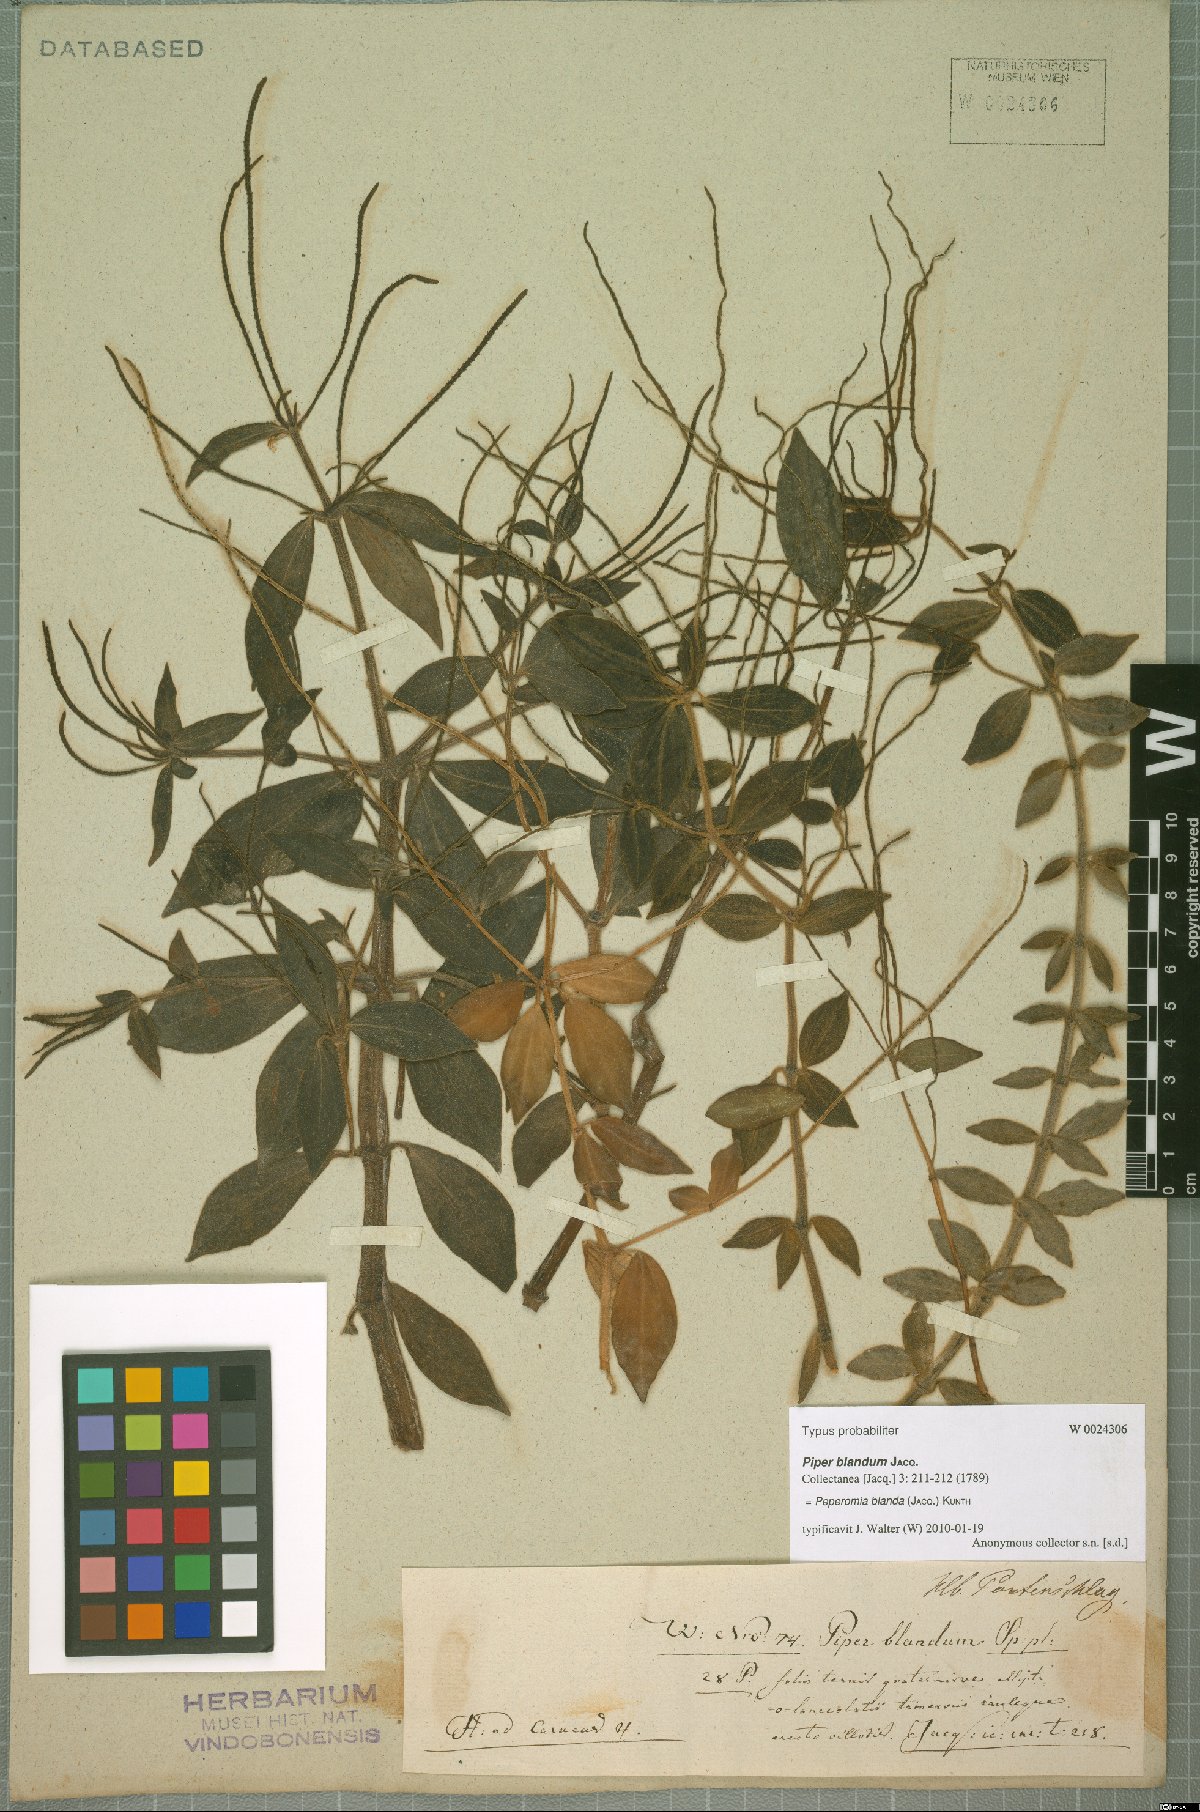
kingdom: Plantae
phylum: Tracheophyta
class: Magnoliopsida
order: Piperales
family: Piperaceae
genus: Peperomia
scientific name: Peperomia blanda
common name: Arid-land peperomia
